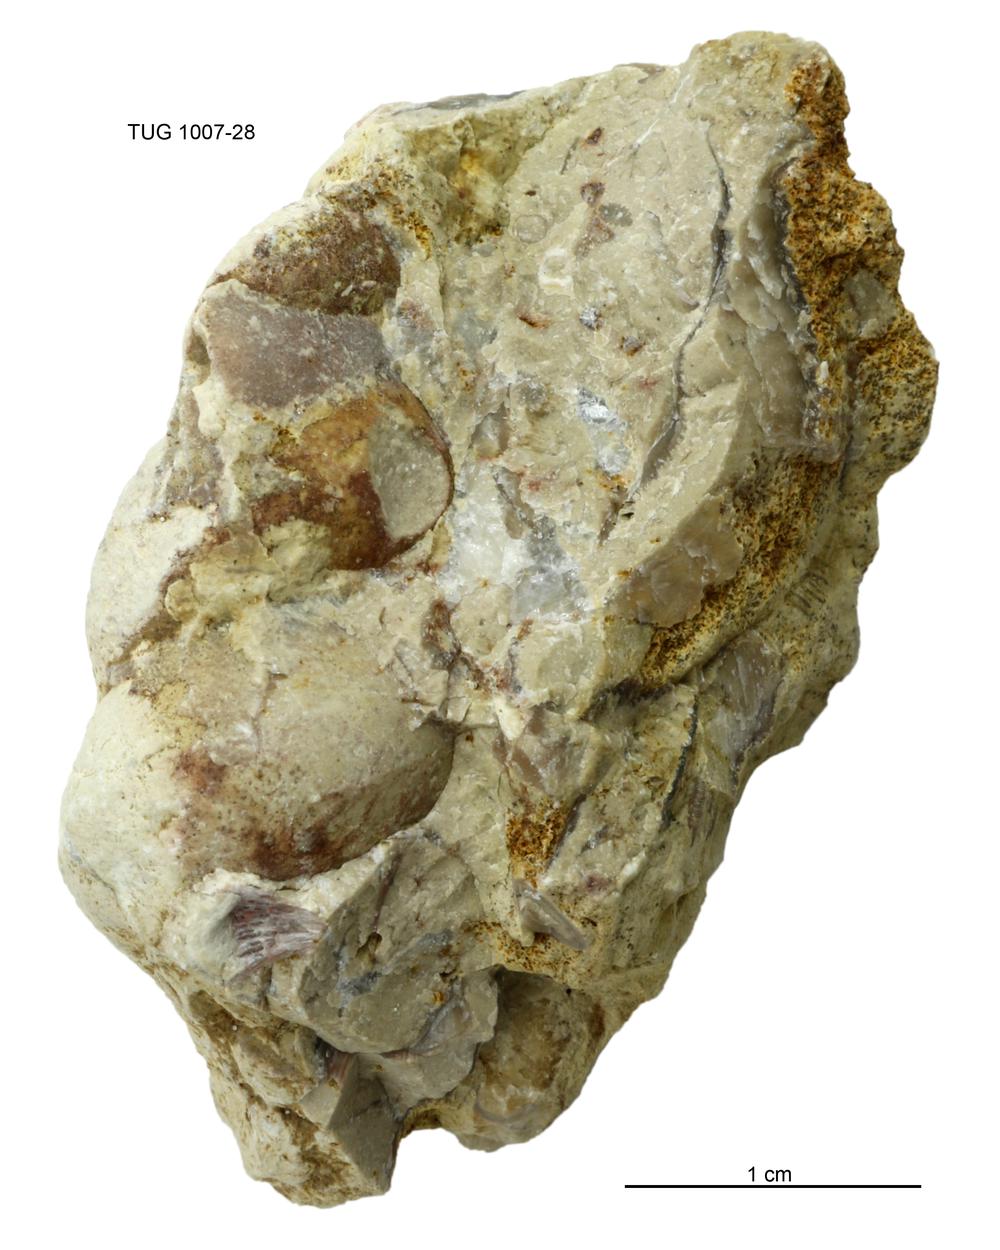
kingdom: Animalia
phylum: Mollusca
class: Gastropoda
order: Pleurotomariida
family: Murchisoniidae
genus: Murchisonia
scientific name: Murchisonia insignis
